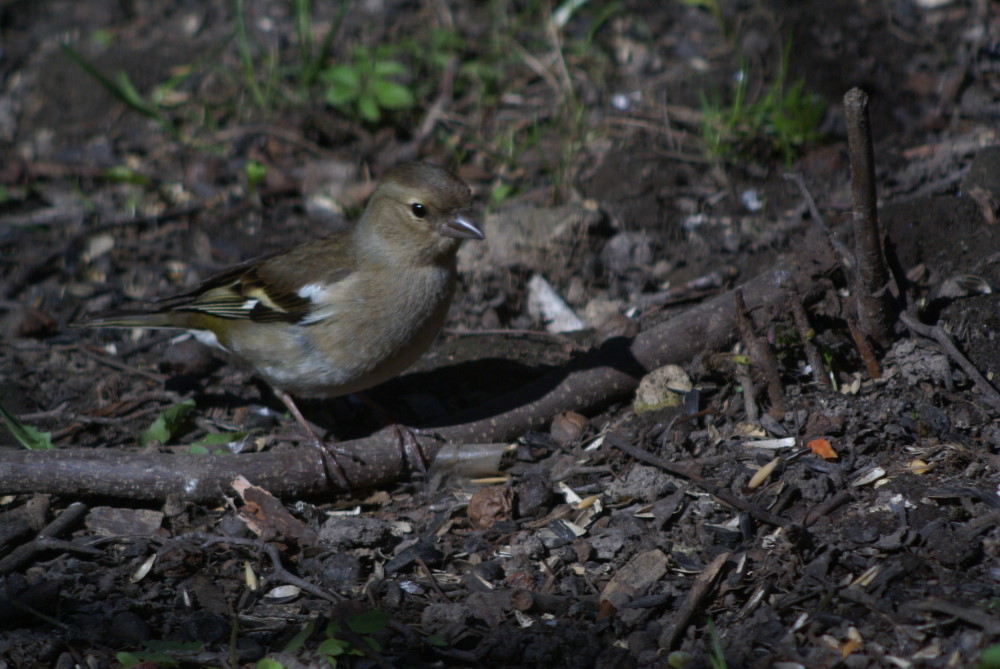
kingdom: Animalia
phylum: Chordata
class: Aves
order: Passeriformes
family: Fringillidae
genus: Fringilla
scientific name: Fringilla coelebs
